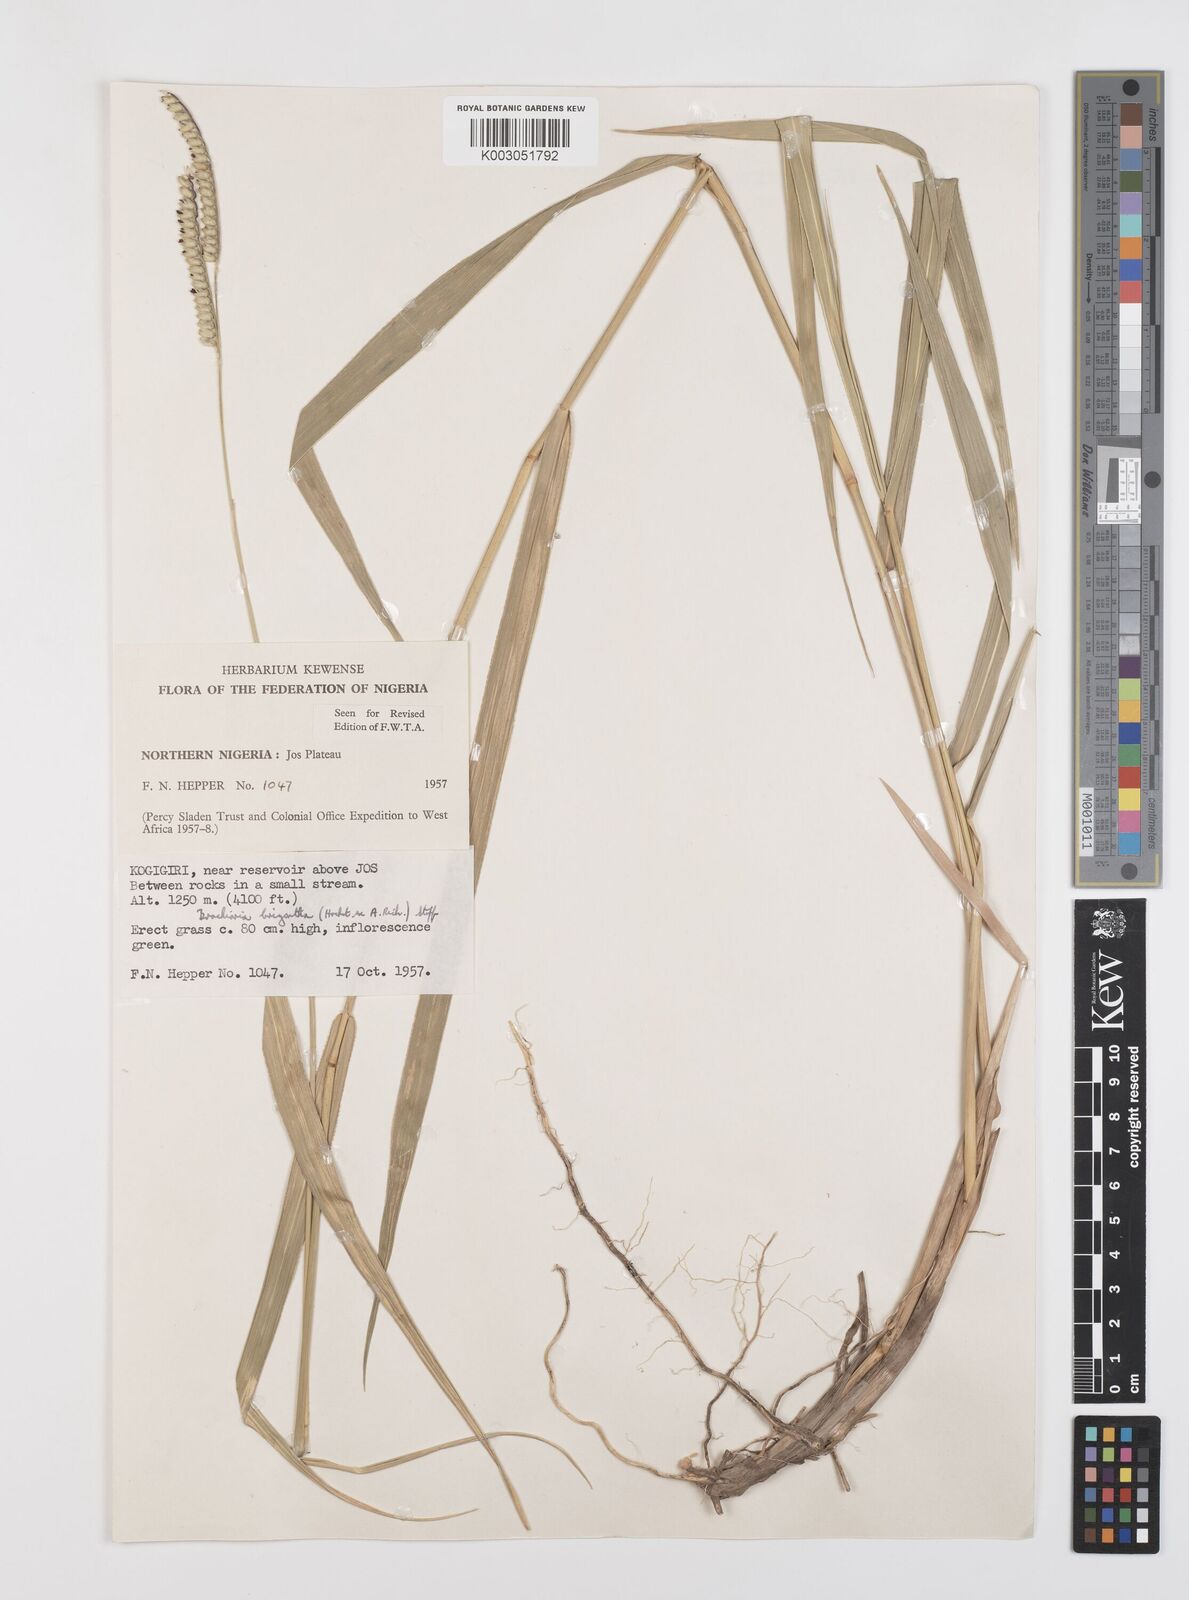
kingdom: Plantae
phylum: Tracheophyta
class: Liliopsida
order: Poales
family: Poaceae
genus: Urochloa
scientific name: Urochloa brizantha
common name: Palisade signalgrass
